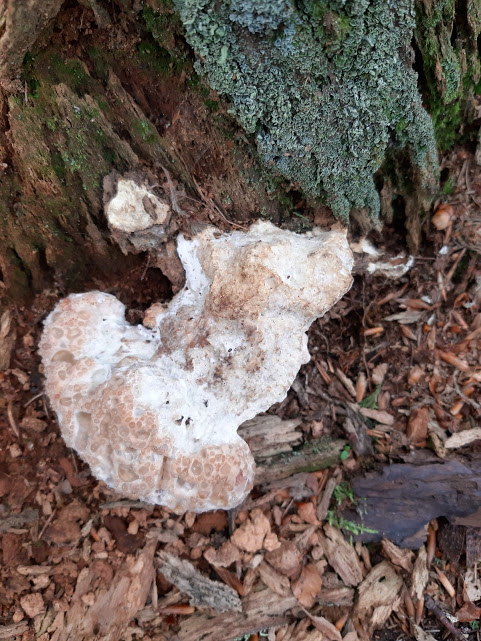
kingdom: Fungi
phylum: Basidiomycota
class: Agaricomycetes
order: Polyporales
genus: Calcipostia
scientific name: Calcipostia guttulata
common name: dråbe-kødporesvamp
